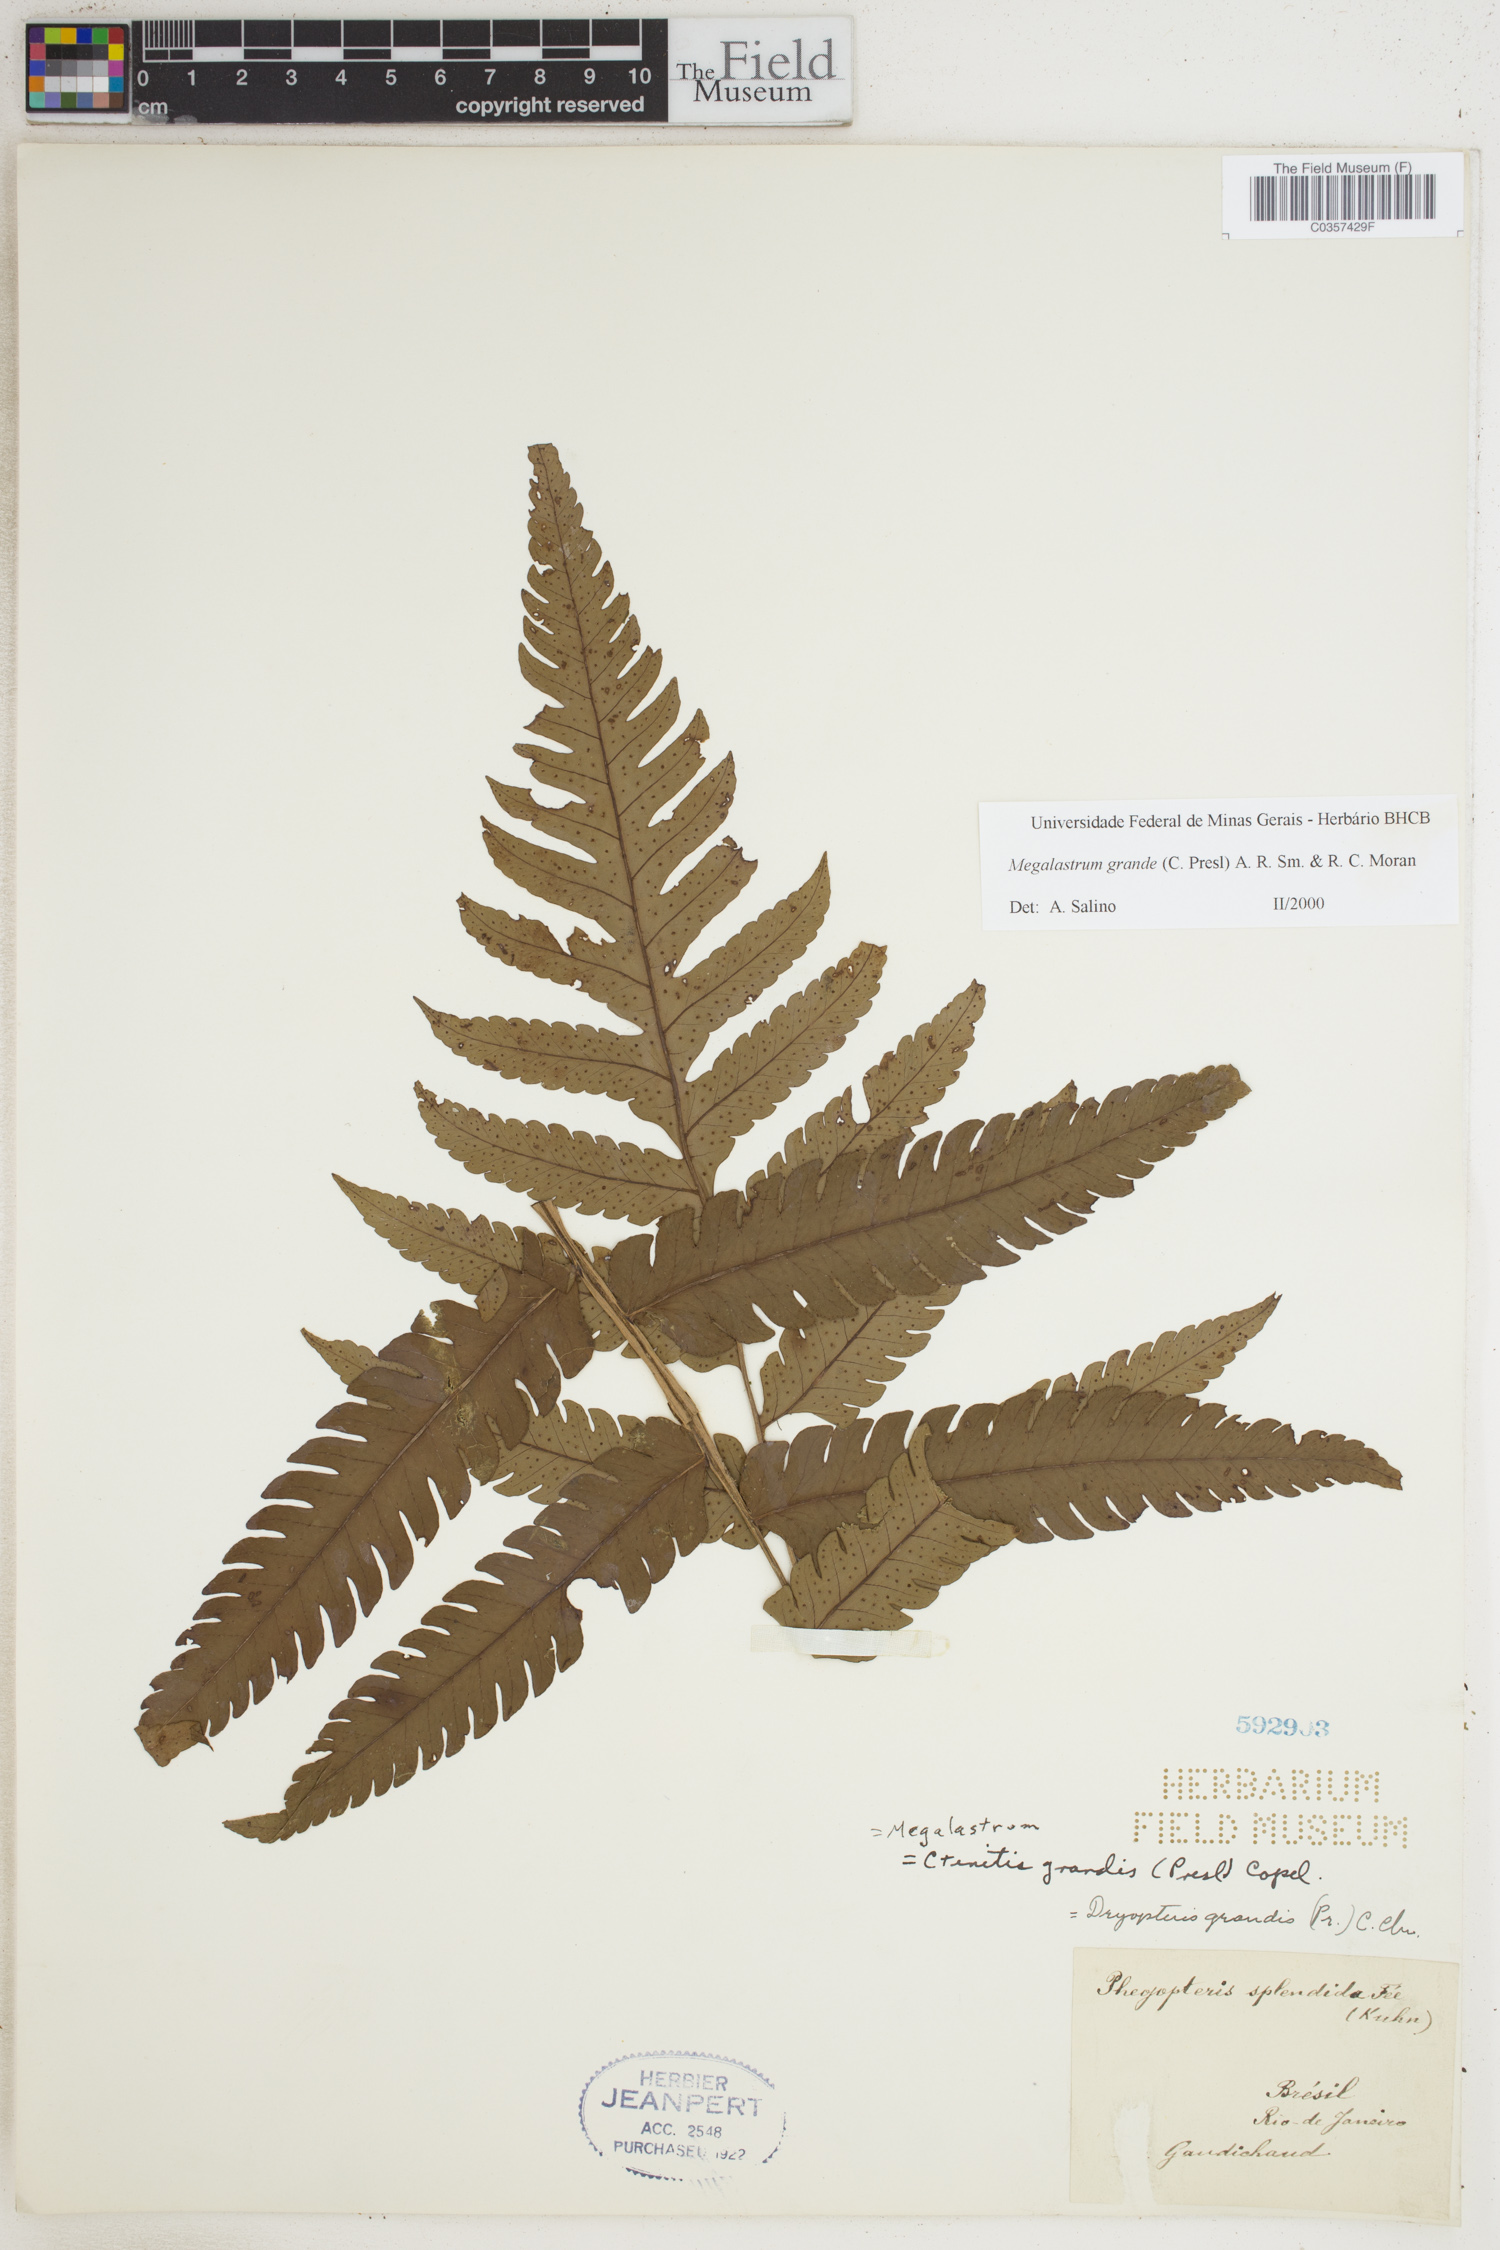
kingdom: Plantae
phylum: Tracheophyta
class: Polypodiopsida
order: Polypodiales
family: Dryopteridaceae
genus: Megalastrum
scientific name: Megalastrum grande
